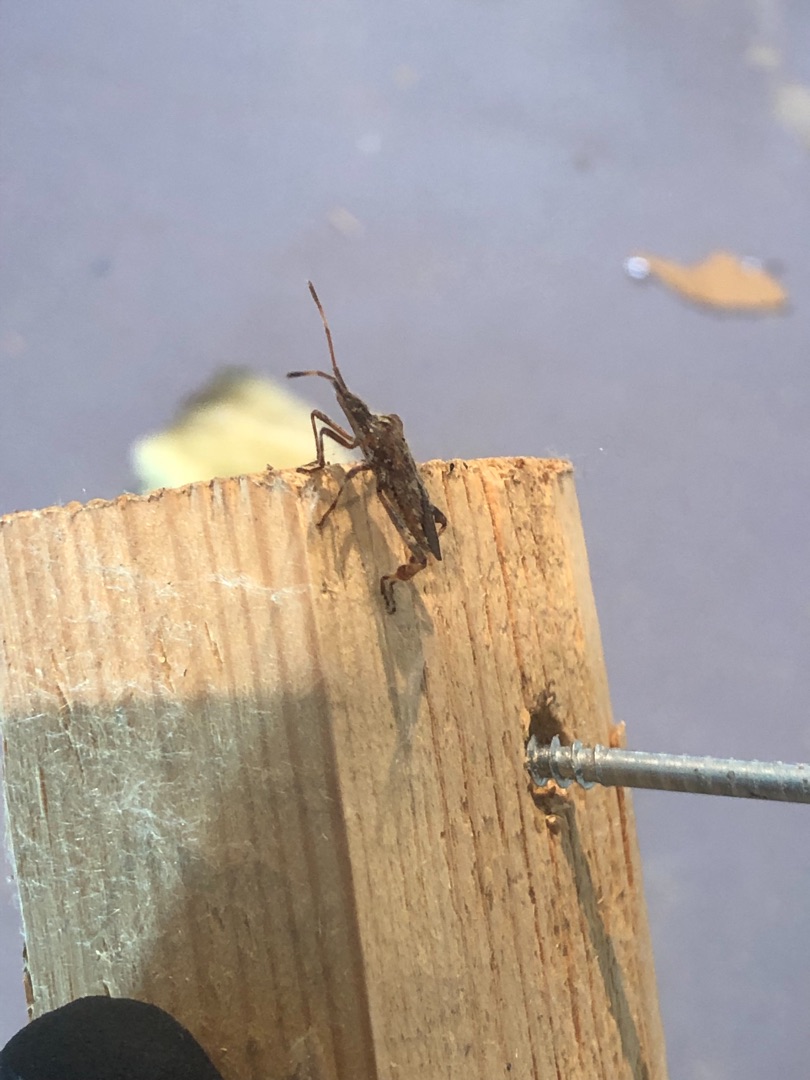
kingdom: Animalia
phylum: Arthropoda
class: Insecta
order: Hemiptera
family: Coreidae
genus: Leptoglossus
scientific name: Leptoglossus occidentalis
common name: Amerikansk fyrretæge
